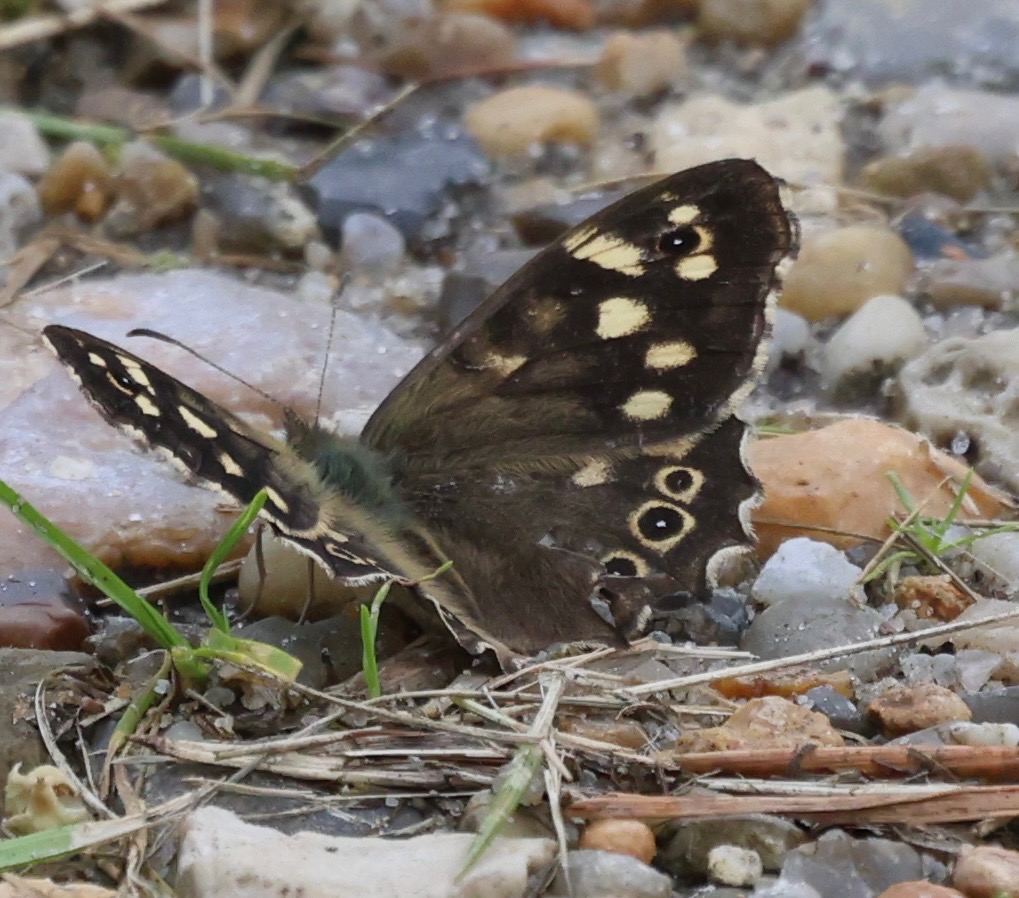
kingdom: Animalia
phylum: Arthropoda
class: Insecta
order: Lepidoptera
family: Nymphalidae
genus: Pararge
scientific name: Pararge aegeria
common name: Skovrandøje
